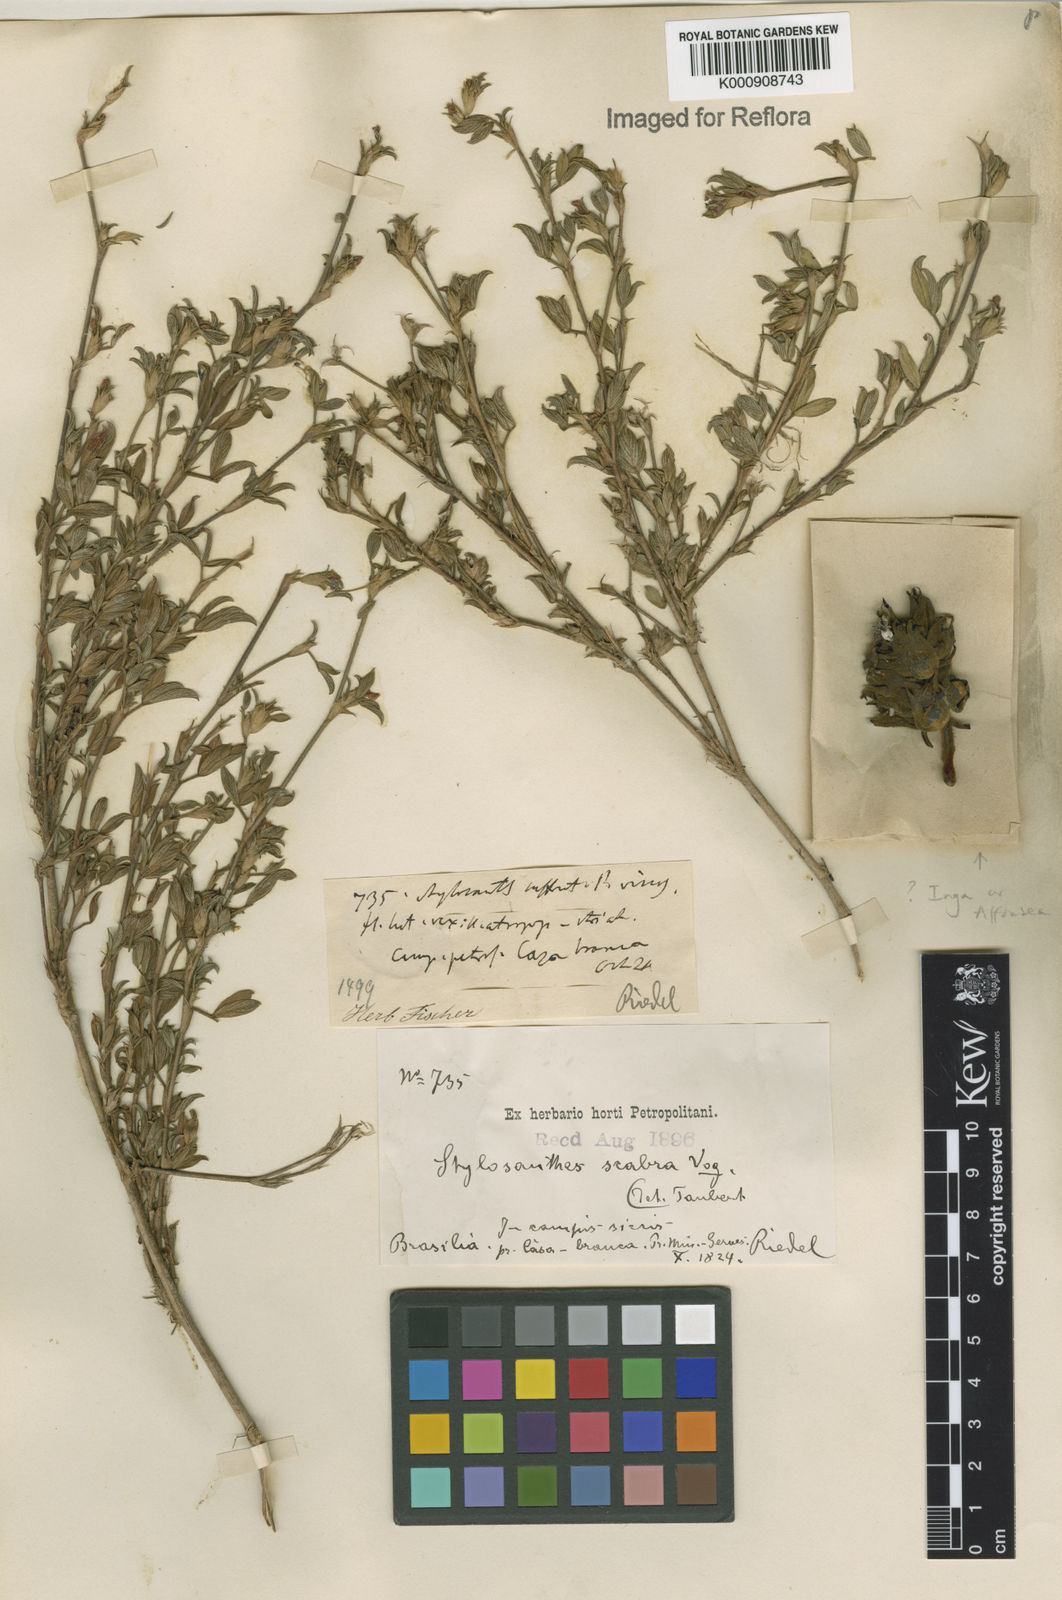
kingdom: Plantae
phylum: Tracheophyta
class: Magnoliopsida
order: Fabales
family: Fabaceae
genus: Stylosanthes
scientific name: Stylosanthes scabra
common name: Pencilflower
